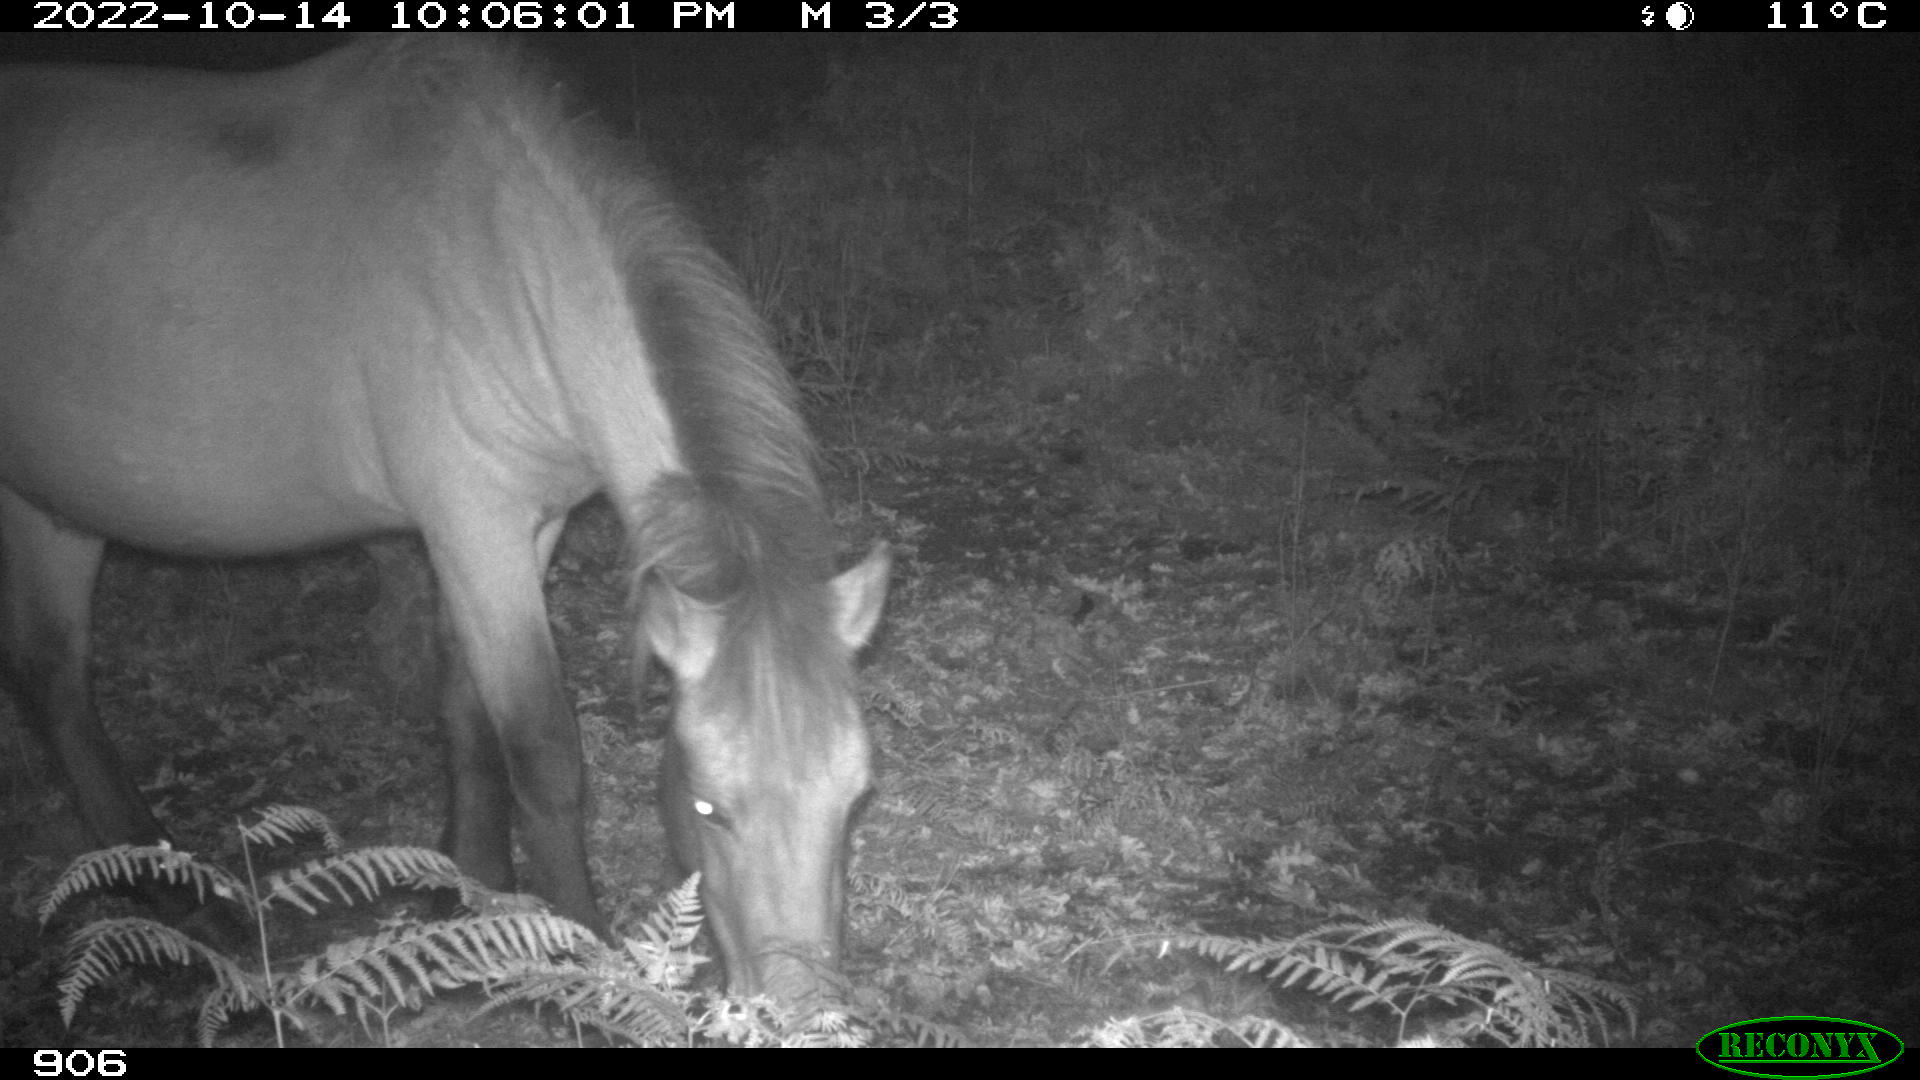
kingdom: Animalia
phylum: Chordata
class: Mammalia
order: Perissodactyla
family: Equidae
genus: Equus
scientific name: Equus caballus
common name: Horse
